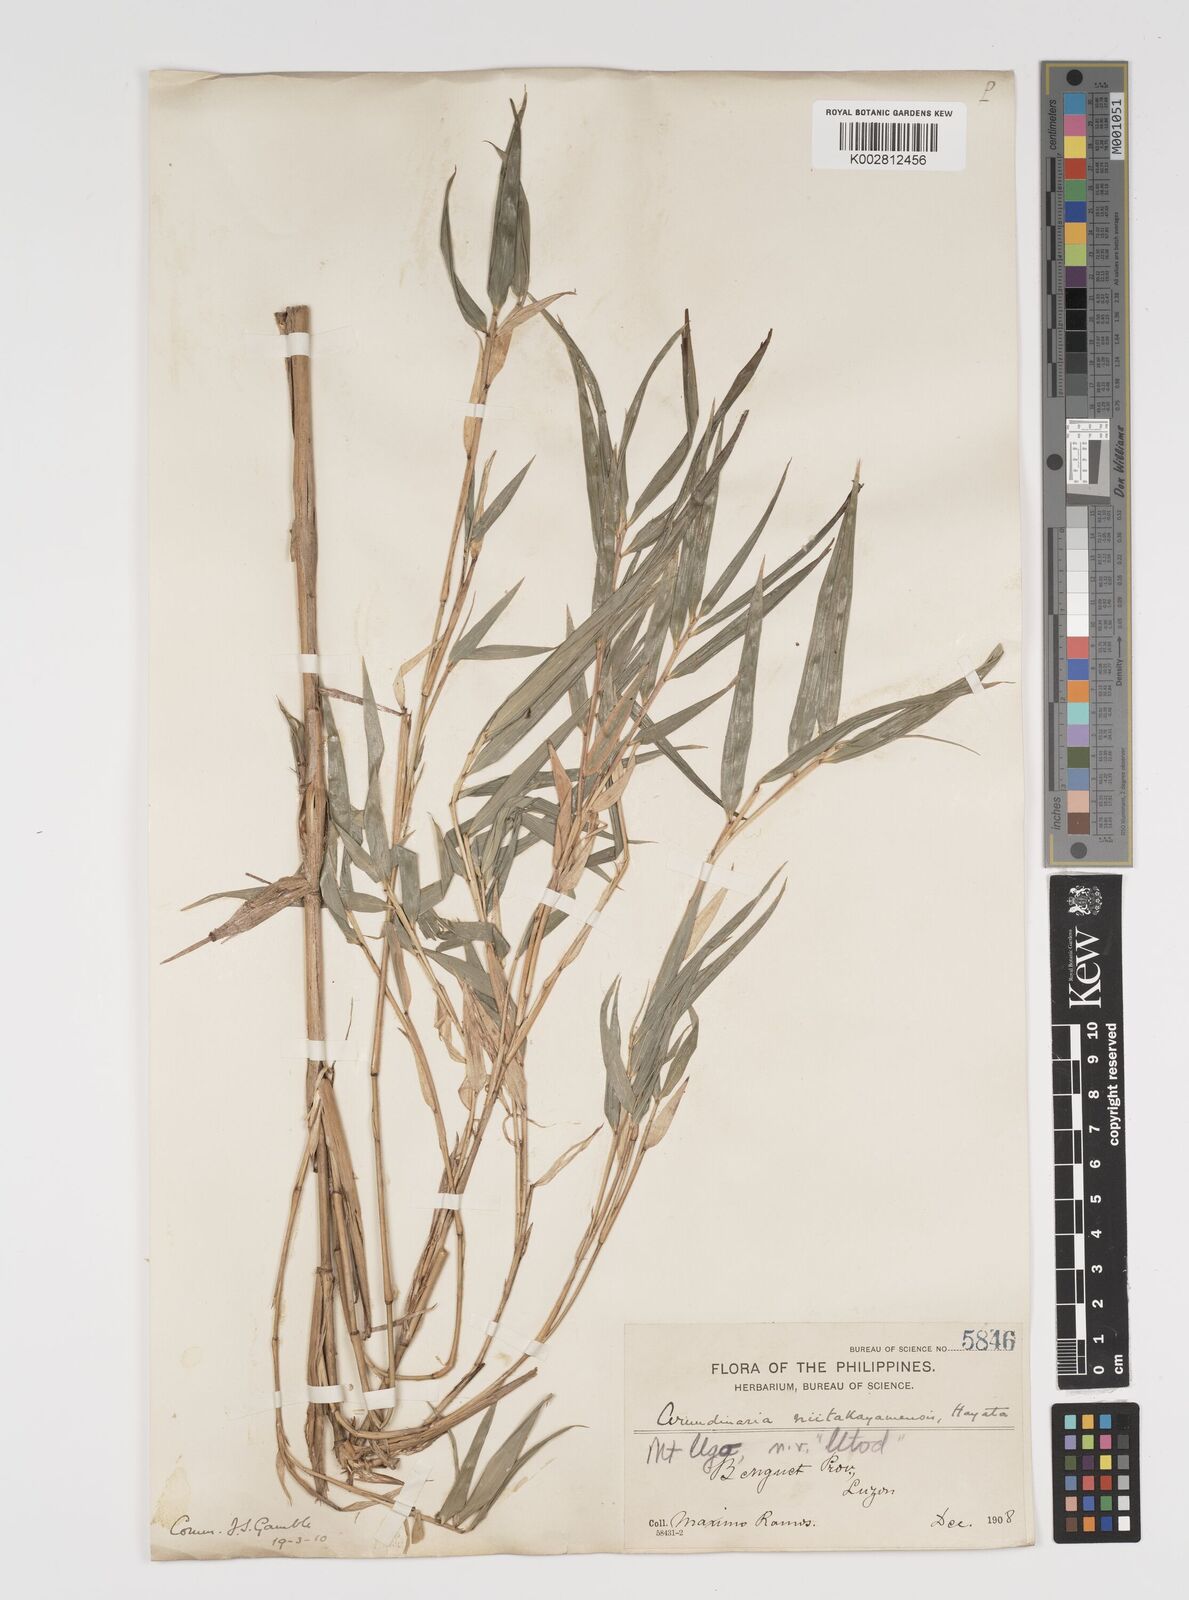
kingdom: Plantae
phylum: Tracheophyta
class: Liliopsida
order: Poales
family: Poaceae
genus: Yushania
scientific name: Yushania niitakayamensis
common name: Yushan cane
